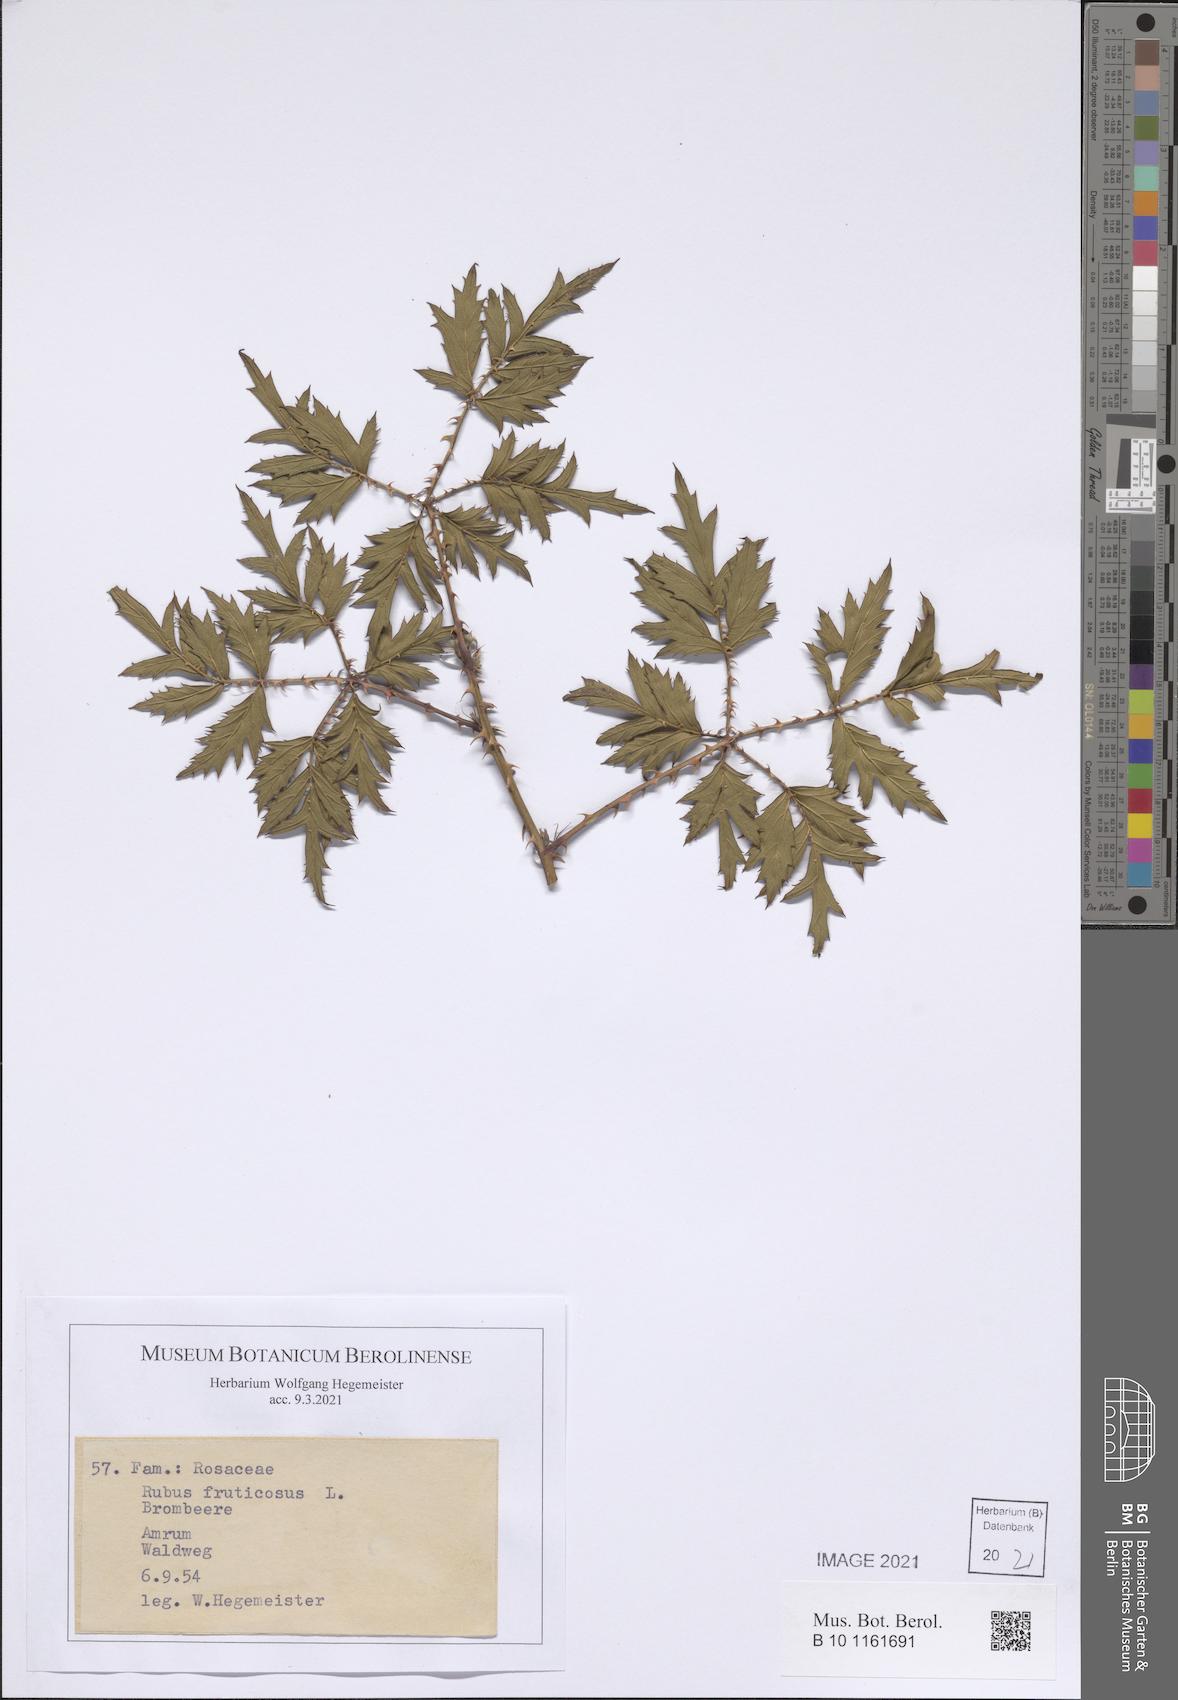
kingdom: Plantae
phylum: Tracheophyta
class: Magnoliopsida
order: Rosales
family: Rosaceae
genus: Rubus
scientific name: Rubus fruticosus
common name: Blackberry, bramble
